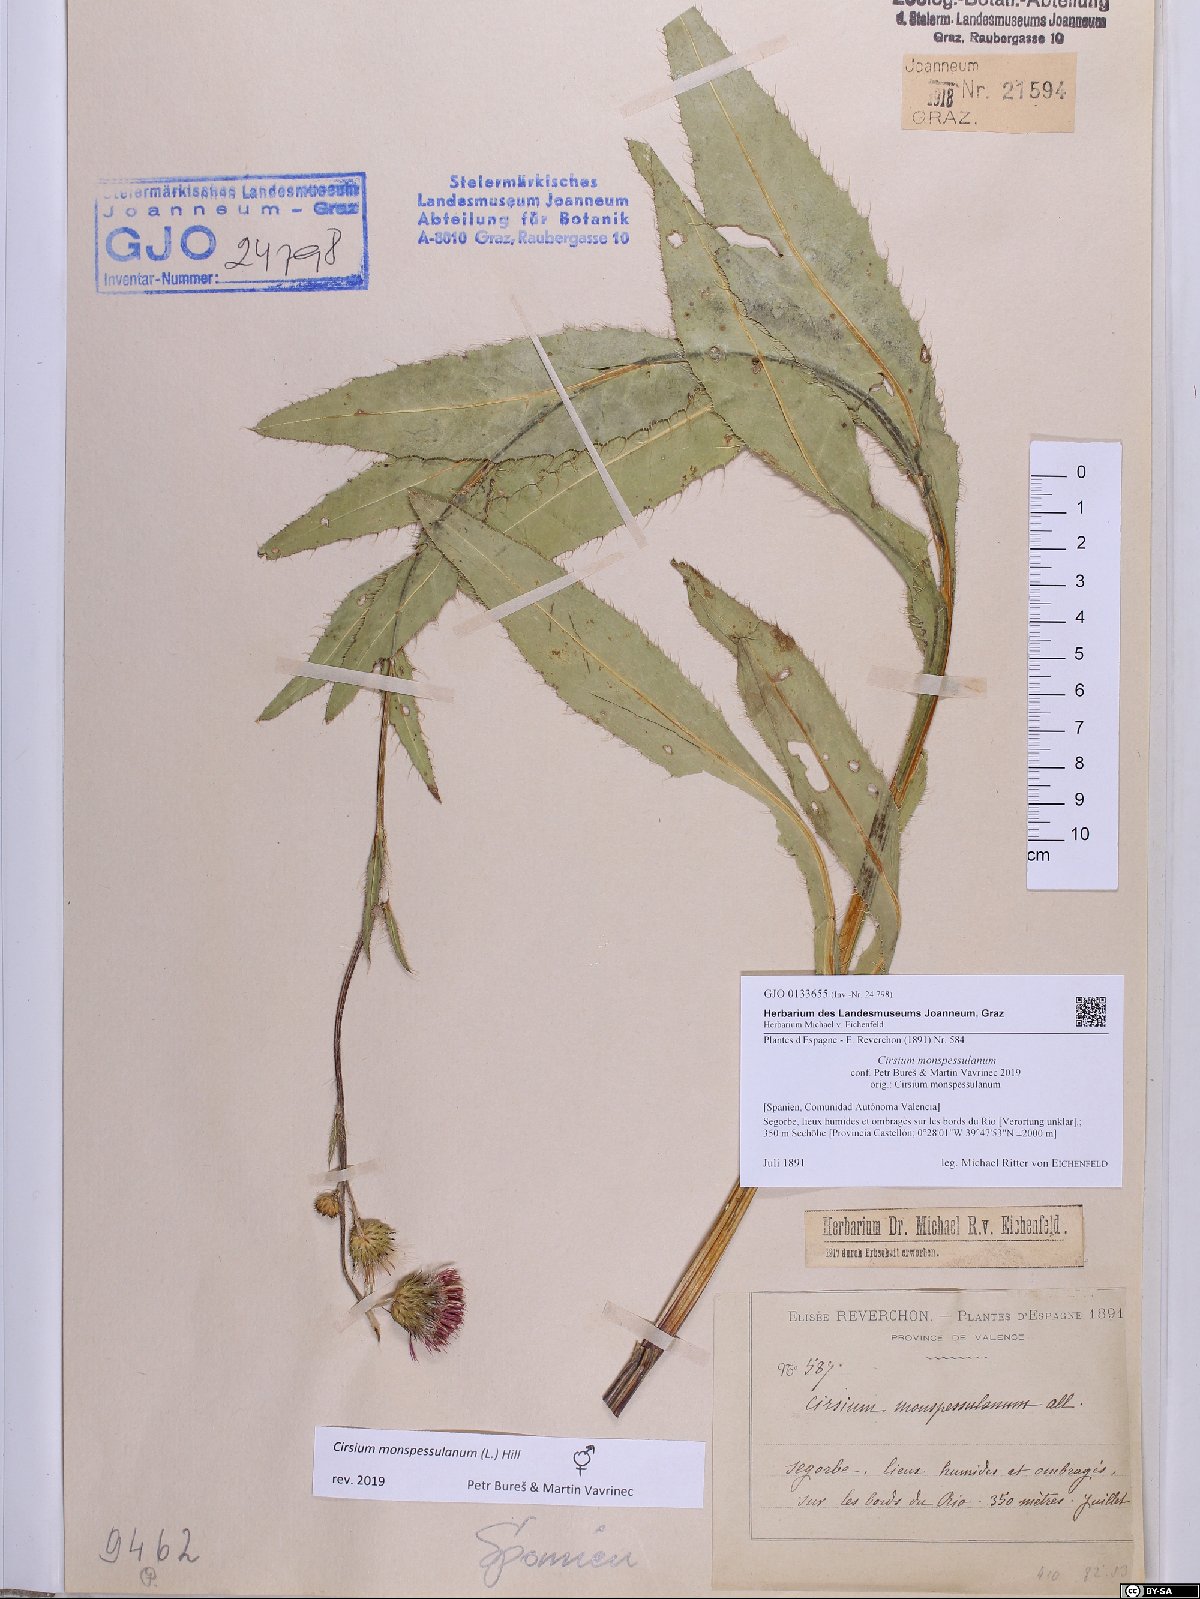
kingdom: Plantae
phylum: Tracheophyta
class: Magnoliopsida
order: Asterales
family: Asteraceae
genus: Cirsium
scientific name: Cirsium monspessulanum
